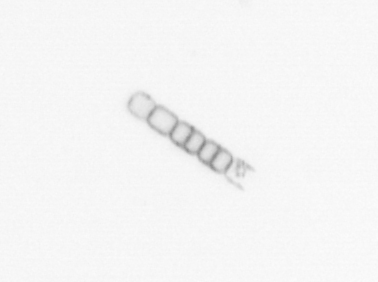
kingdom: Chromista
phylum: Ochrophyta
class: Bacillariophyceae
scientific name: Bacillariophyceae
